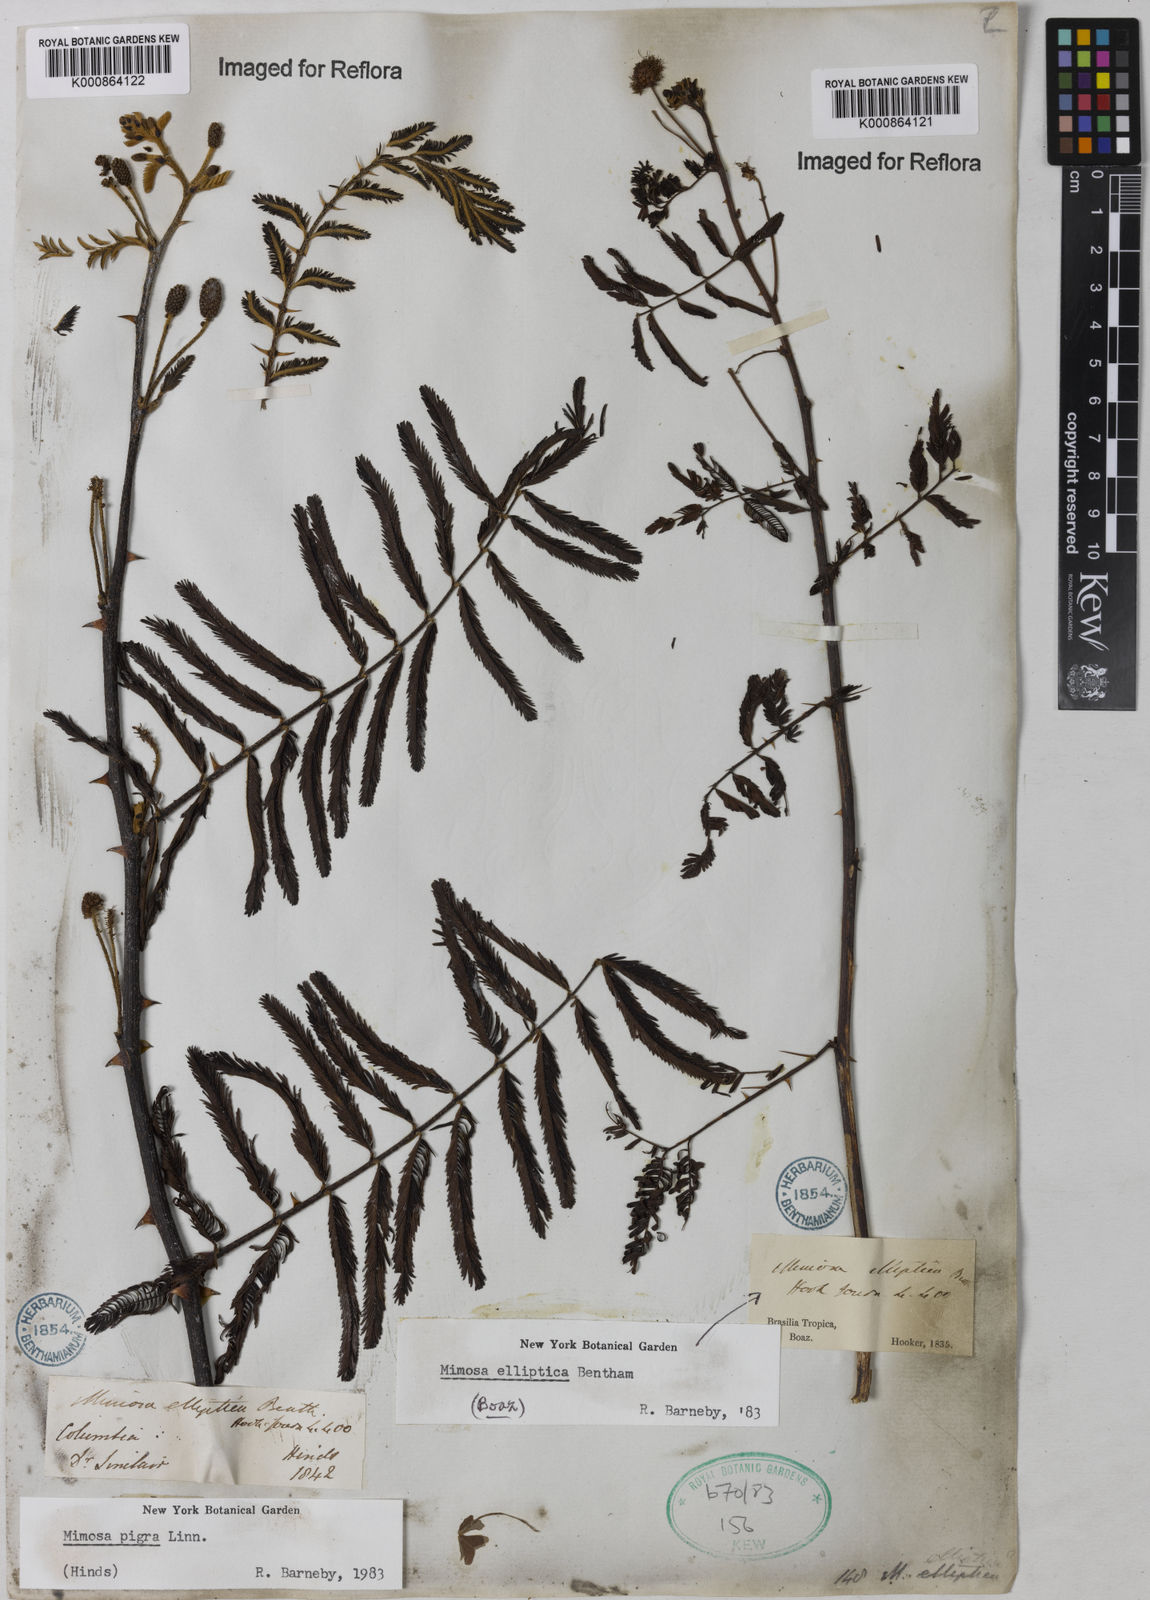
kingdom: Plantae
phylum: Tracheophyta
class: Magnoliopsida
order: Fabales
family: Fabaceae
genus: Mimosa
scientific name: Mimosa elliptica
